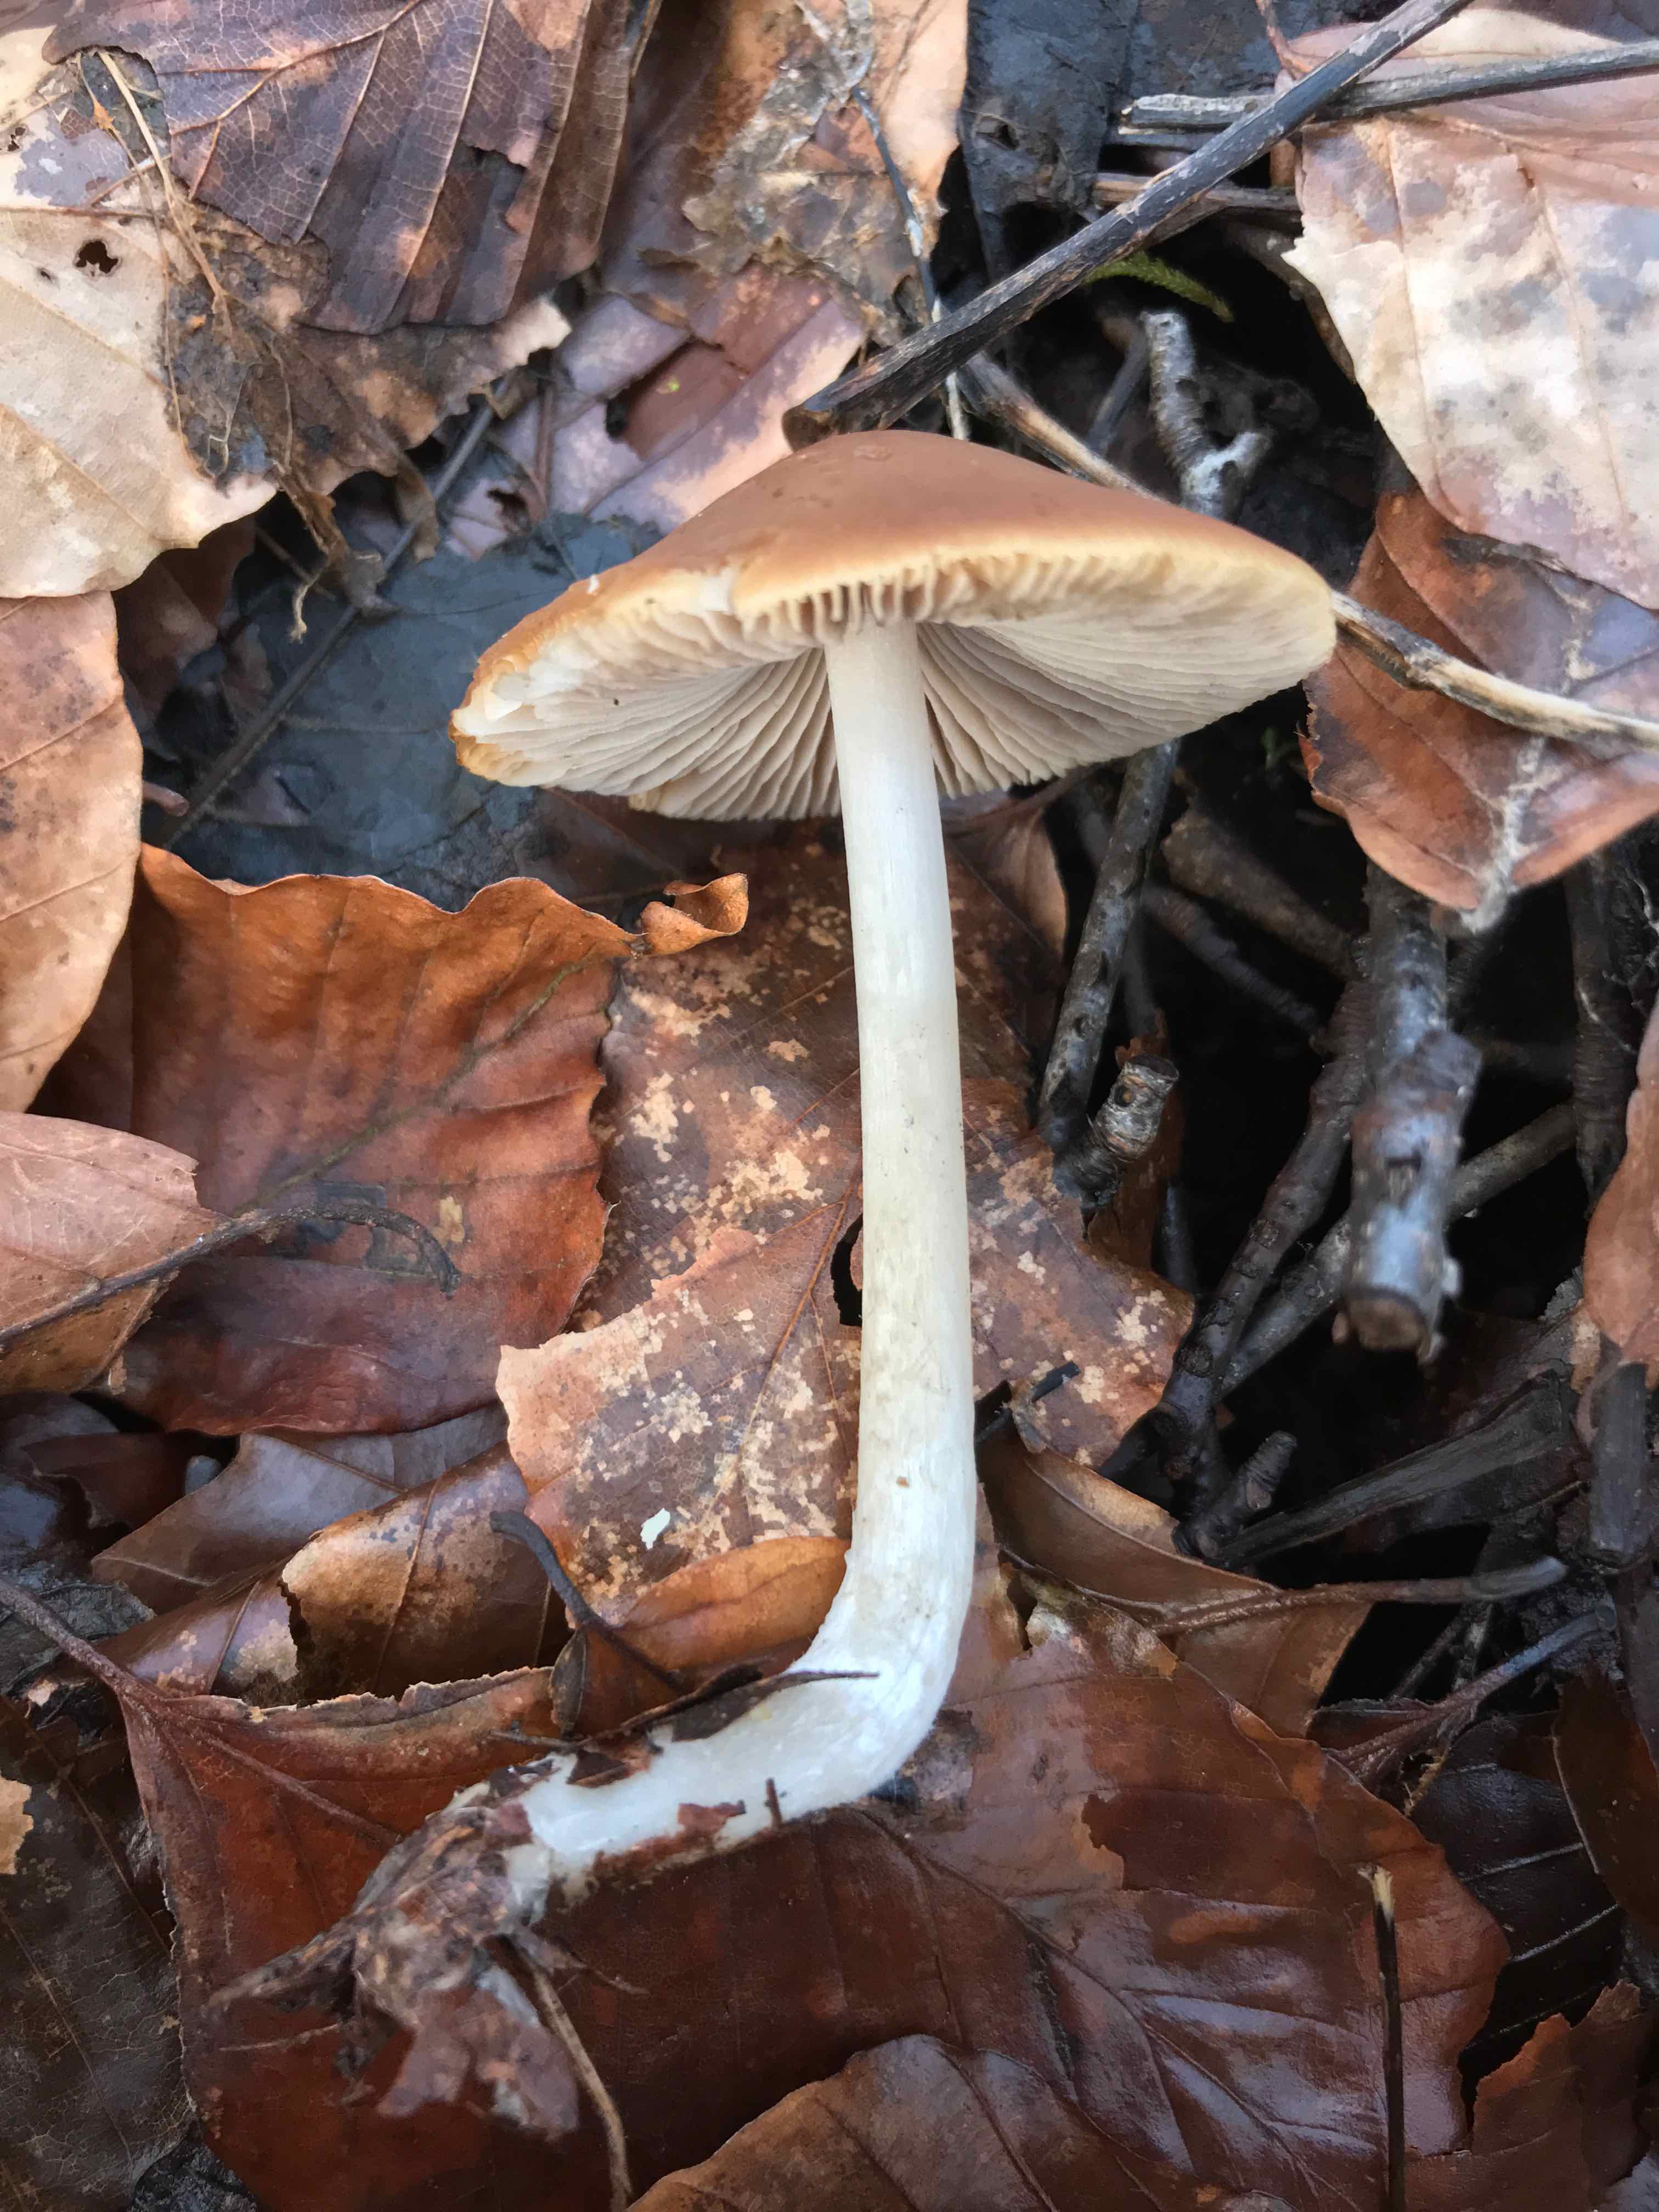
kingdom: Fungi
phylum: Basidiomycota
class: Agaricomycetes
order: Agaricales
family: Psathyrellaceae
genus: Psathyrella
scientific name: Psathyrella
